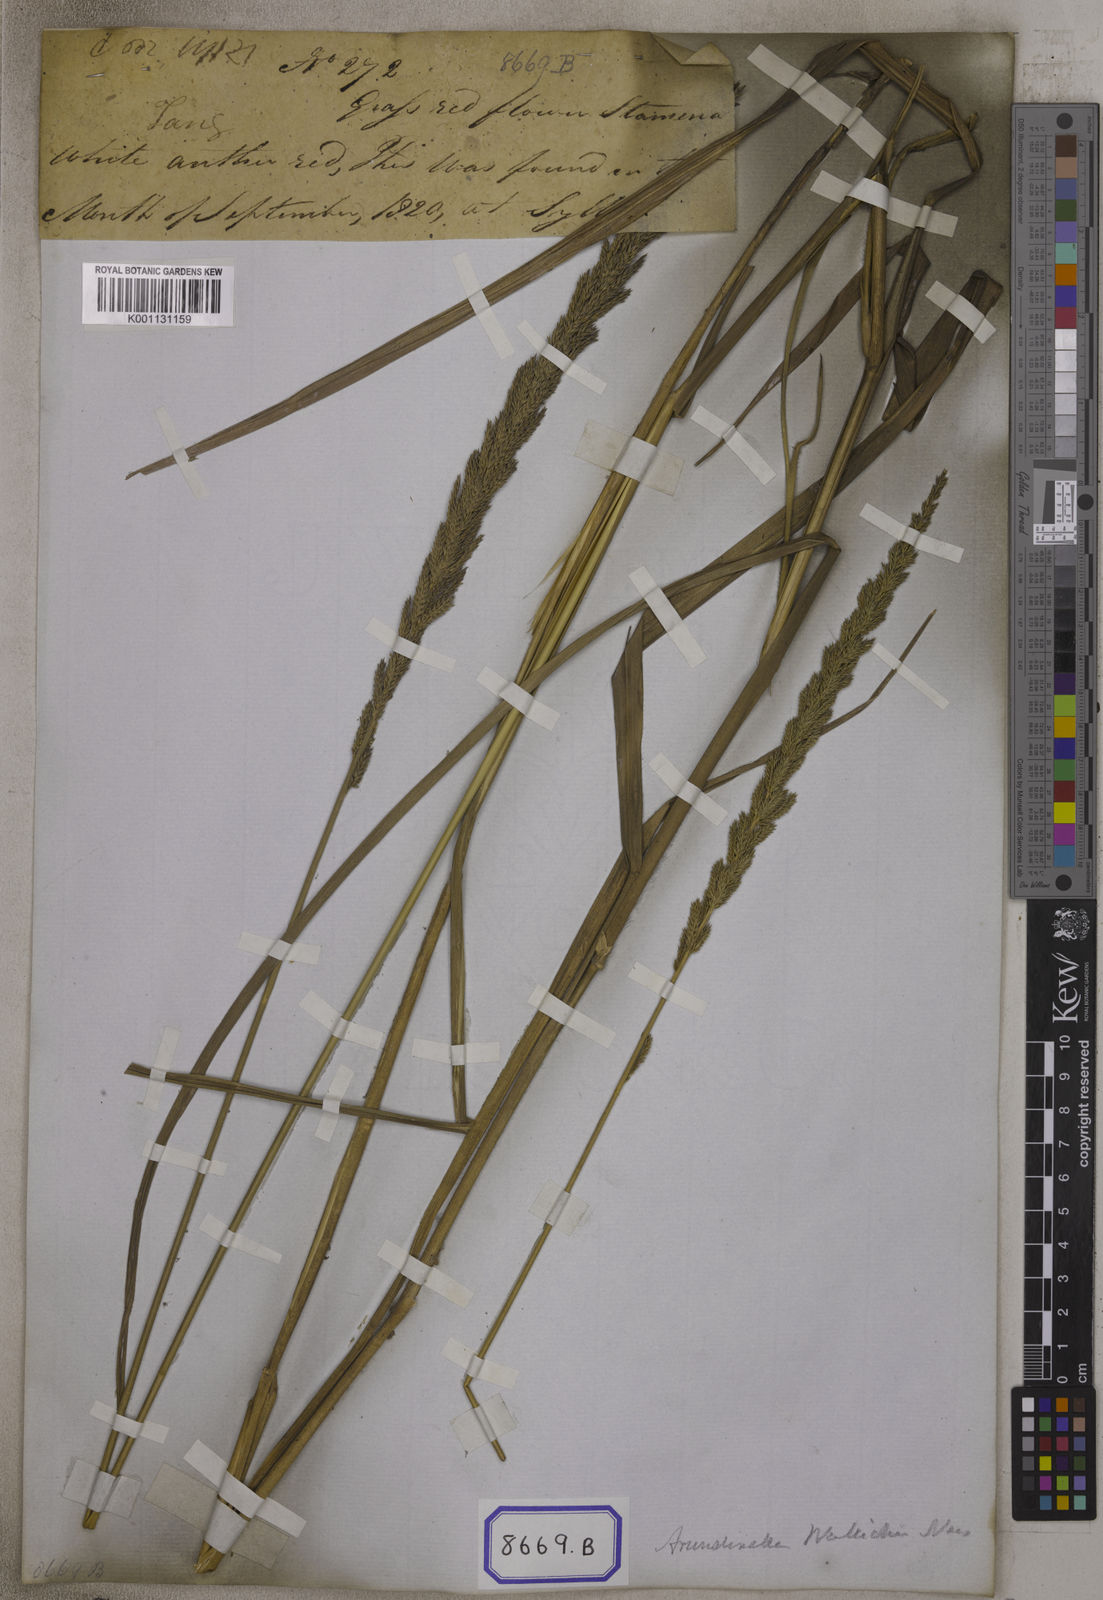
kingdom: Plantae
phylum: Tracheophyta
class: Liliopsida
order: Poales
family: Poaceae
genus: Arundinella
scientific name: Arundinella
